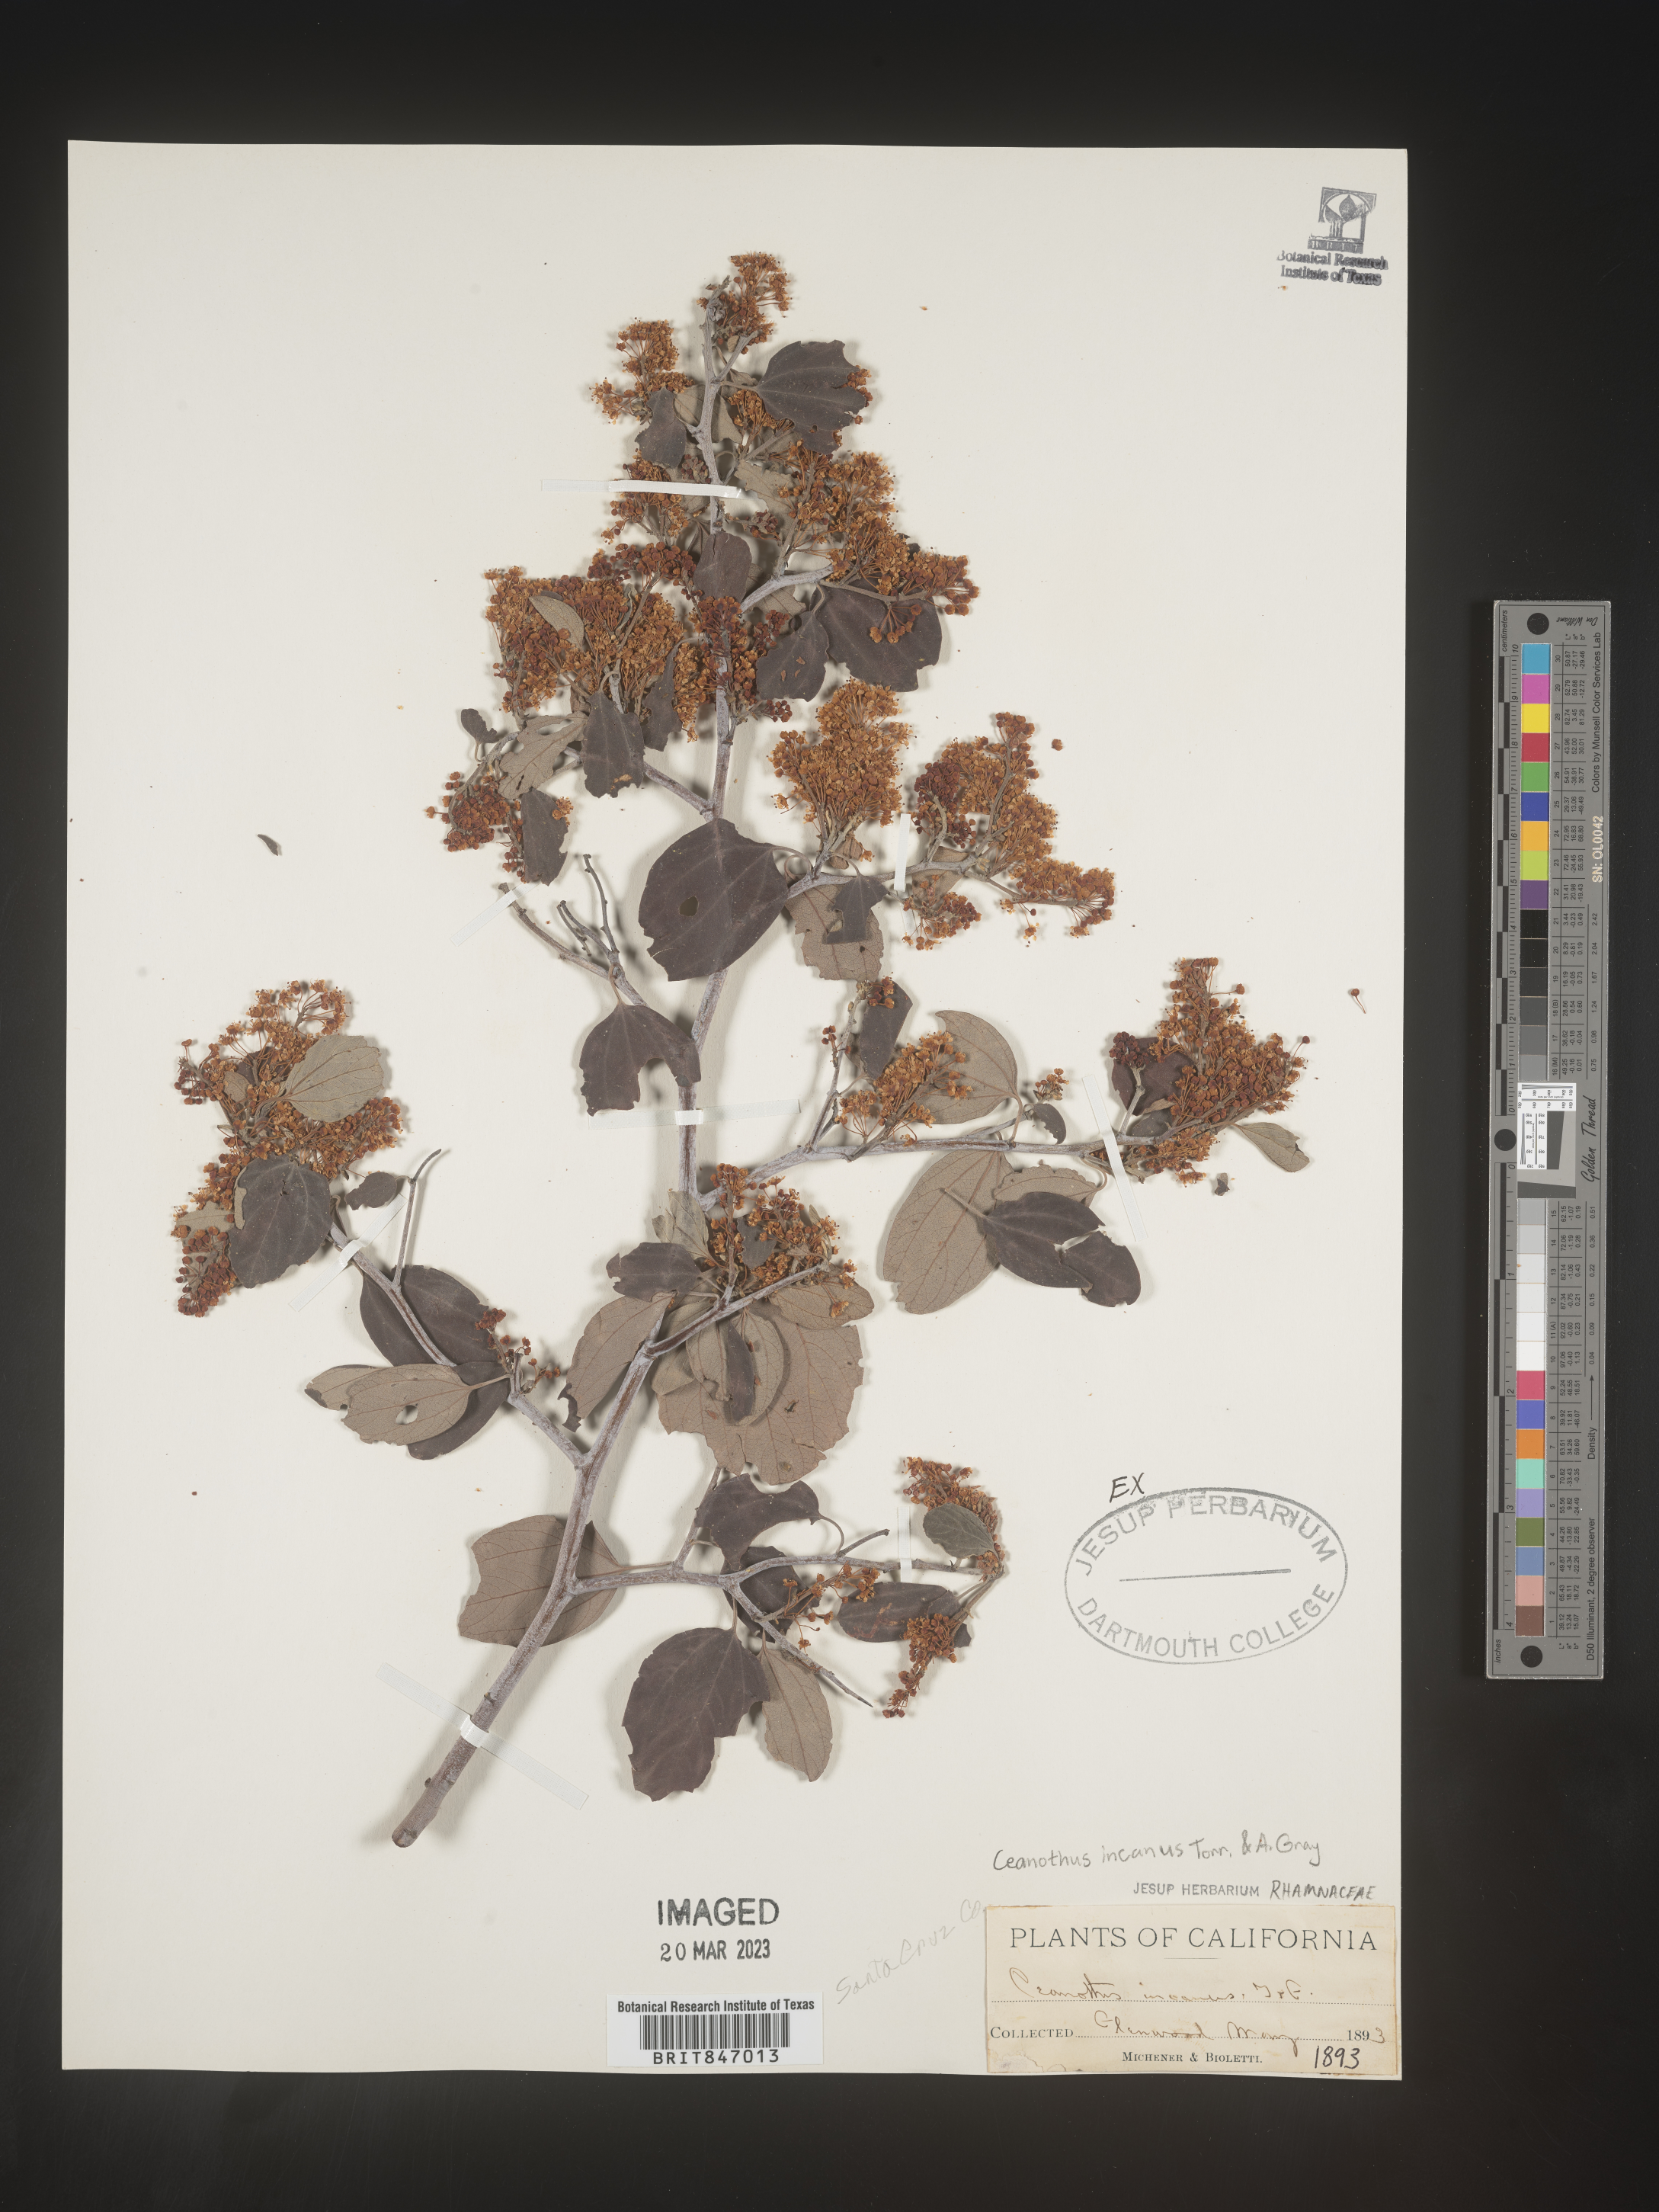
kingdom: Plantae
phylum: Tracheophyta
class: Magnoliopsida
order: Rosales
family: Rhamnaceae
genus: Ceanothus
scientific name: Ceanothus
